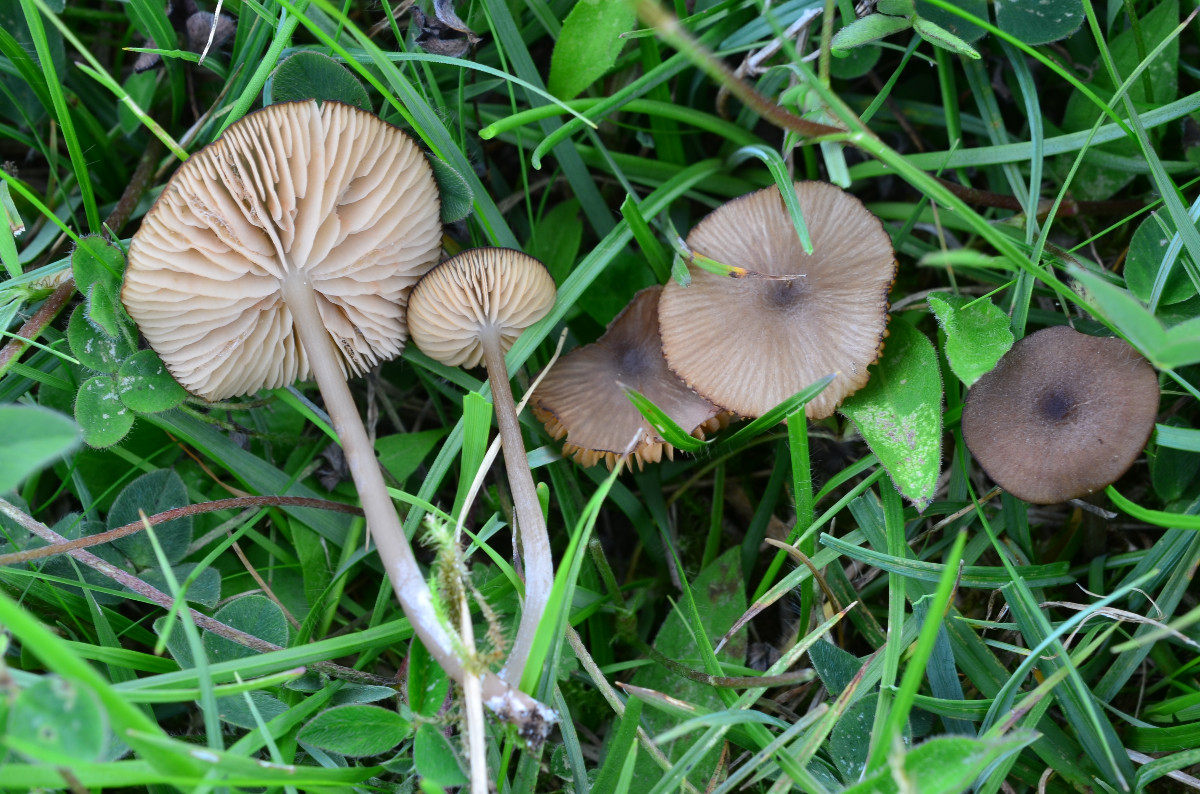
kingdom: Fungi
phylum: Basidiomycota
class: Agaricomycetes
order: Agaricales
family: Entolomataceae
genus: Entoloma
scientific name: Entoloma
